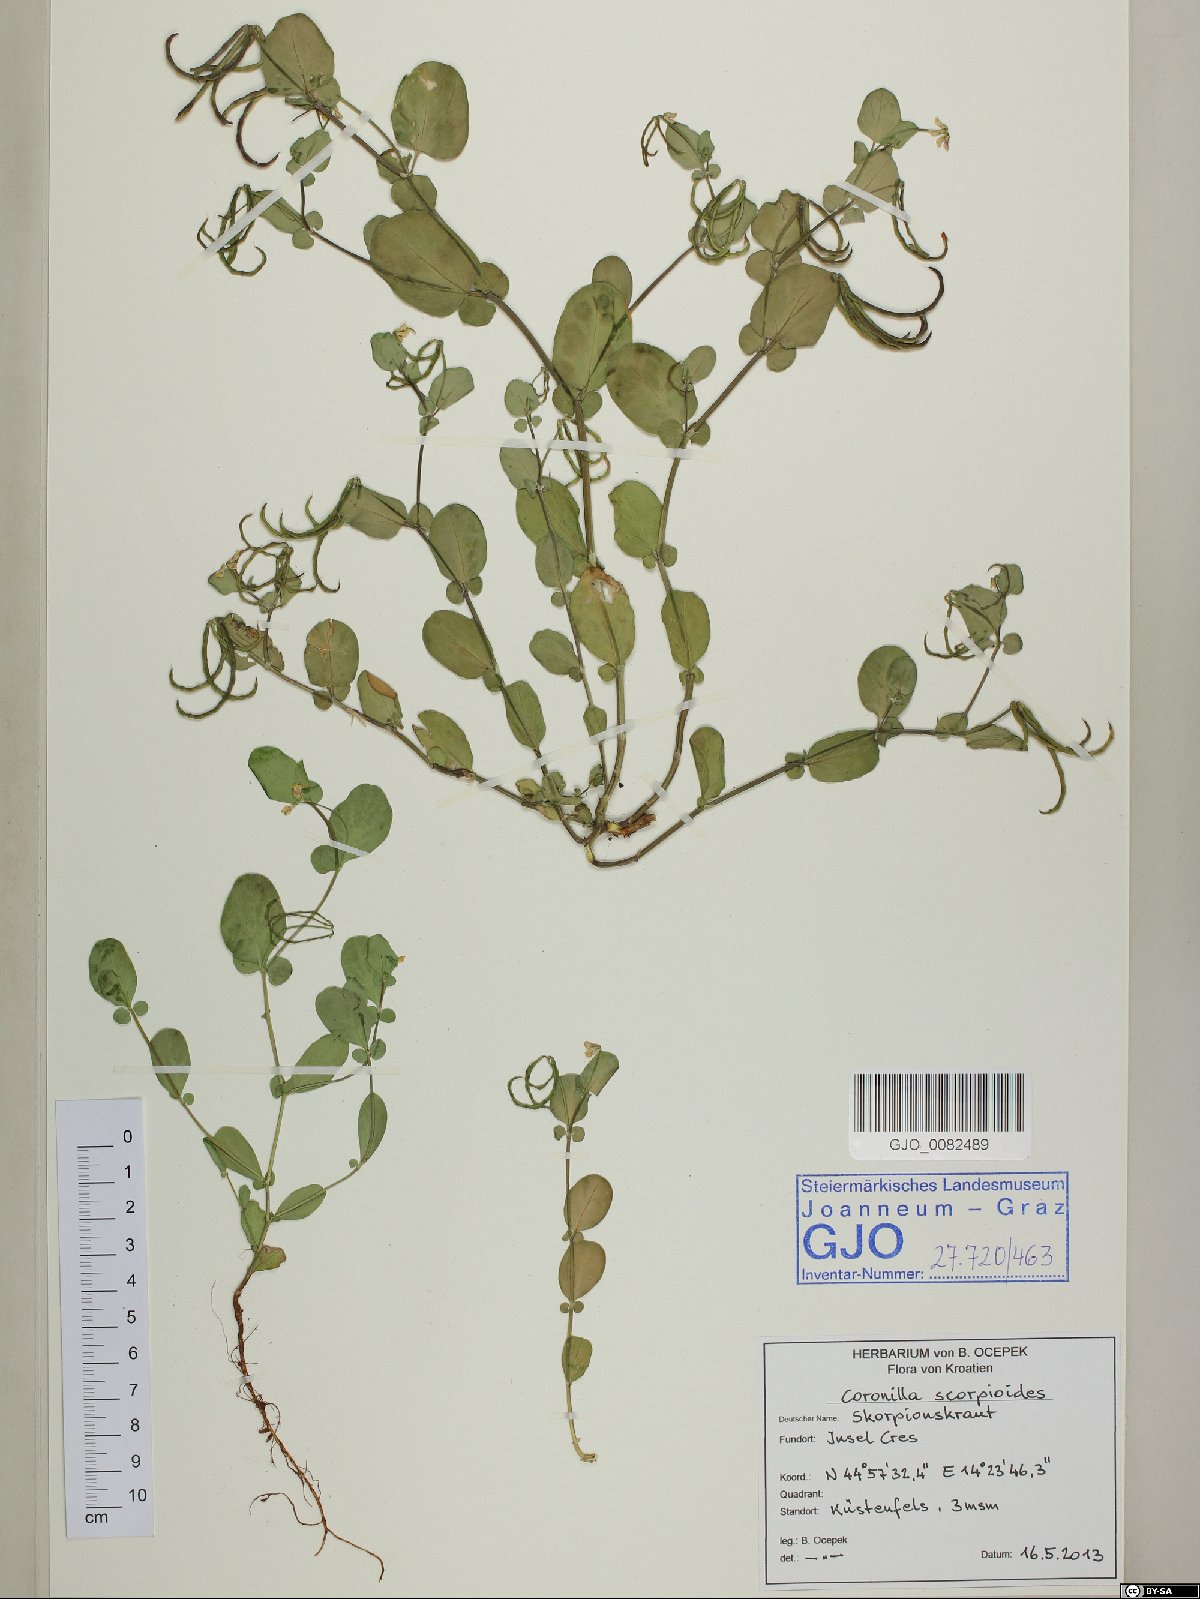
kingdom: Plantae
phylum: Tracheophyta
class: Magnoliopsida
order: Fabales
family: Fabaceae
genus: Coronilla
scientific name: Coronilla scorpioides
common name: Annual scorpion-vetch
